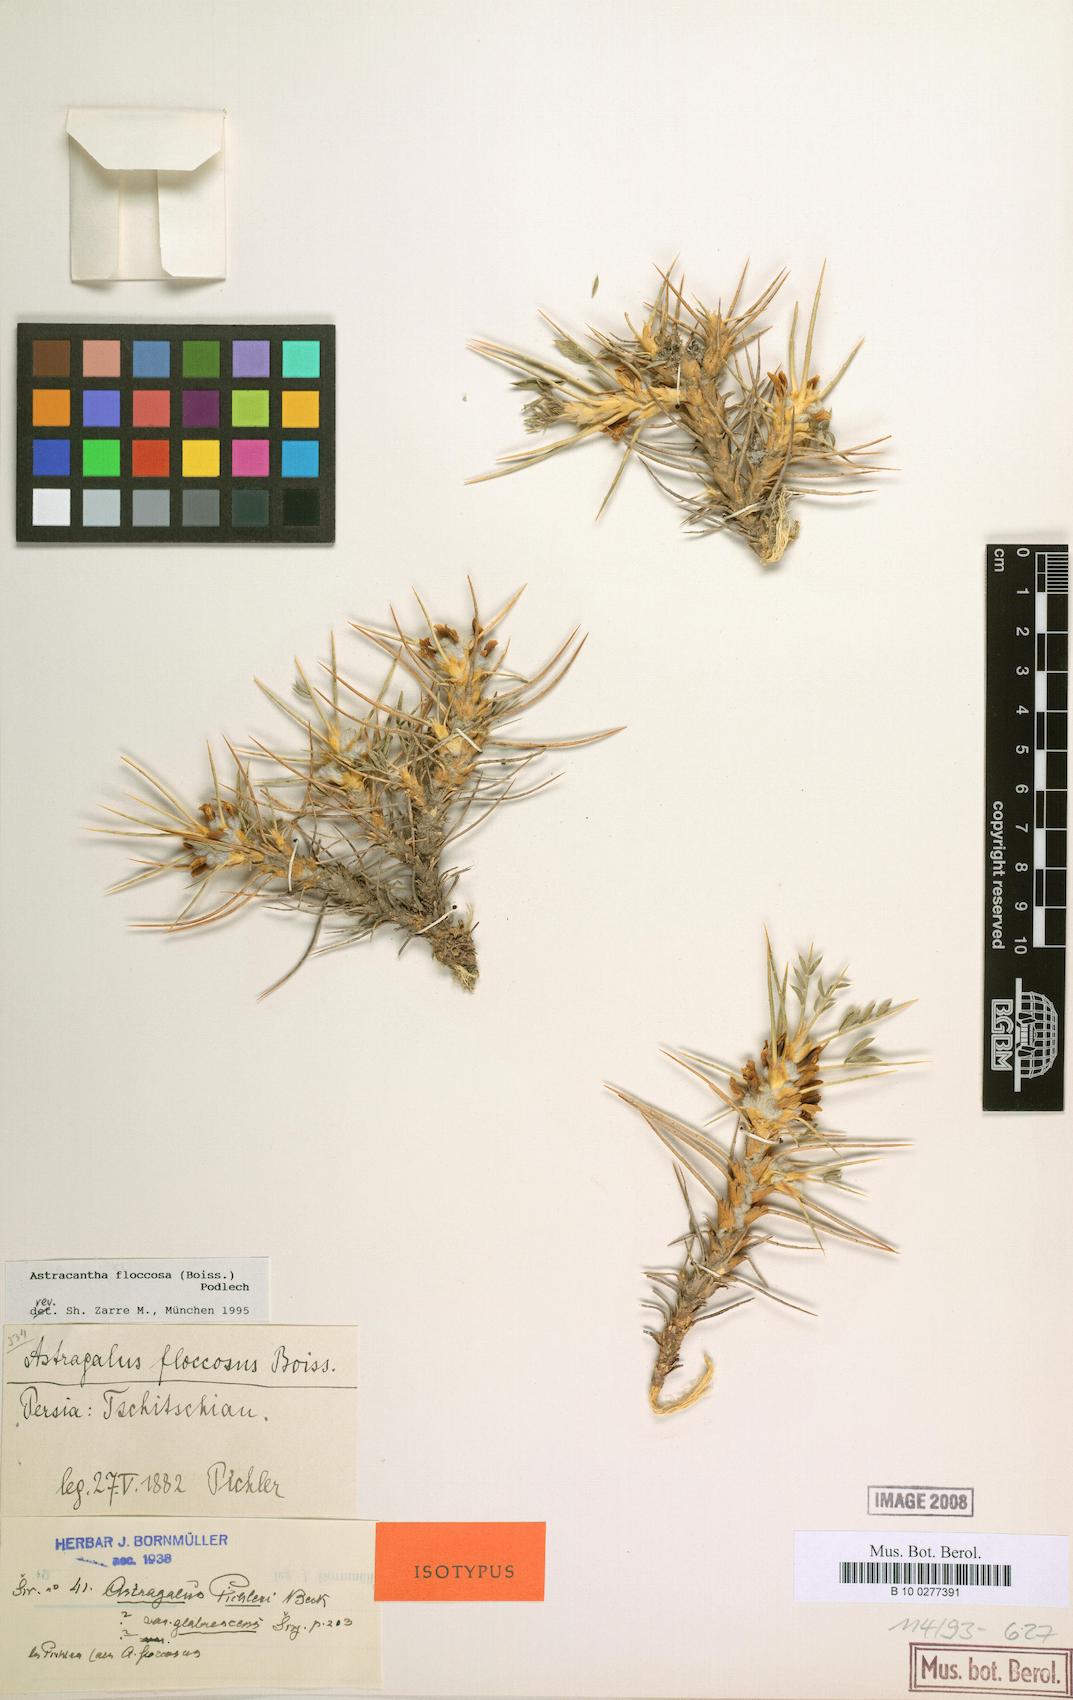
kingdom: Plantae
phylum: Tracheophyta
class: Magnoliopsida
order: Fabales
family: Fabaceae
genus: Astragalus
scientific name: Astragalus floccosus
